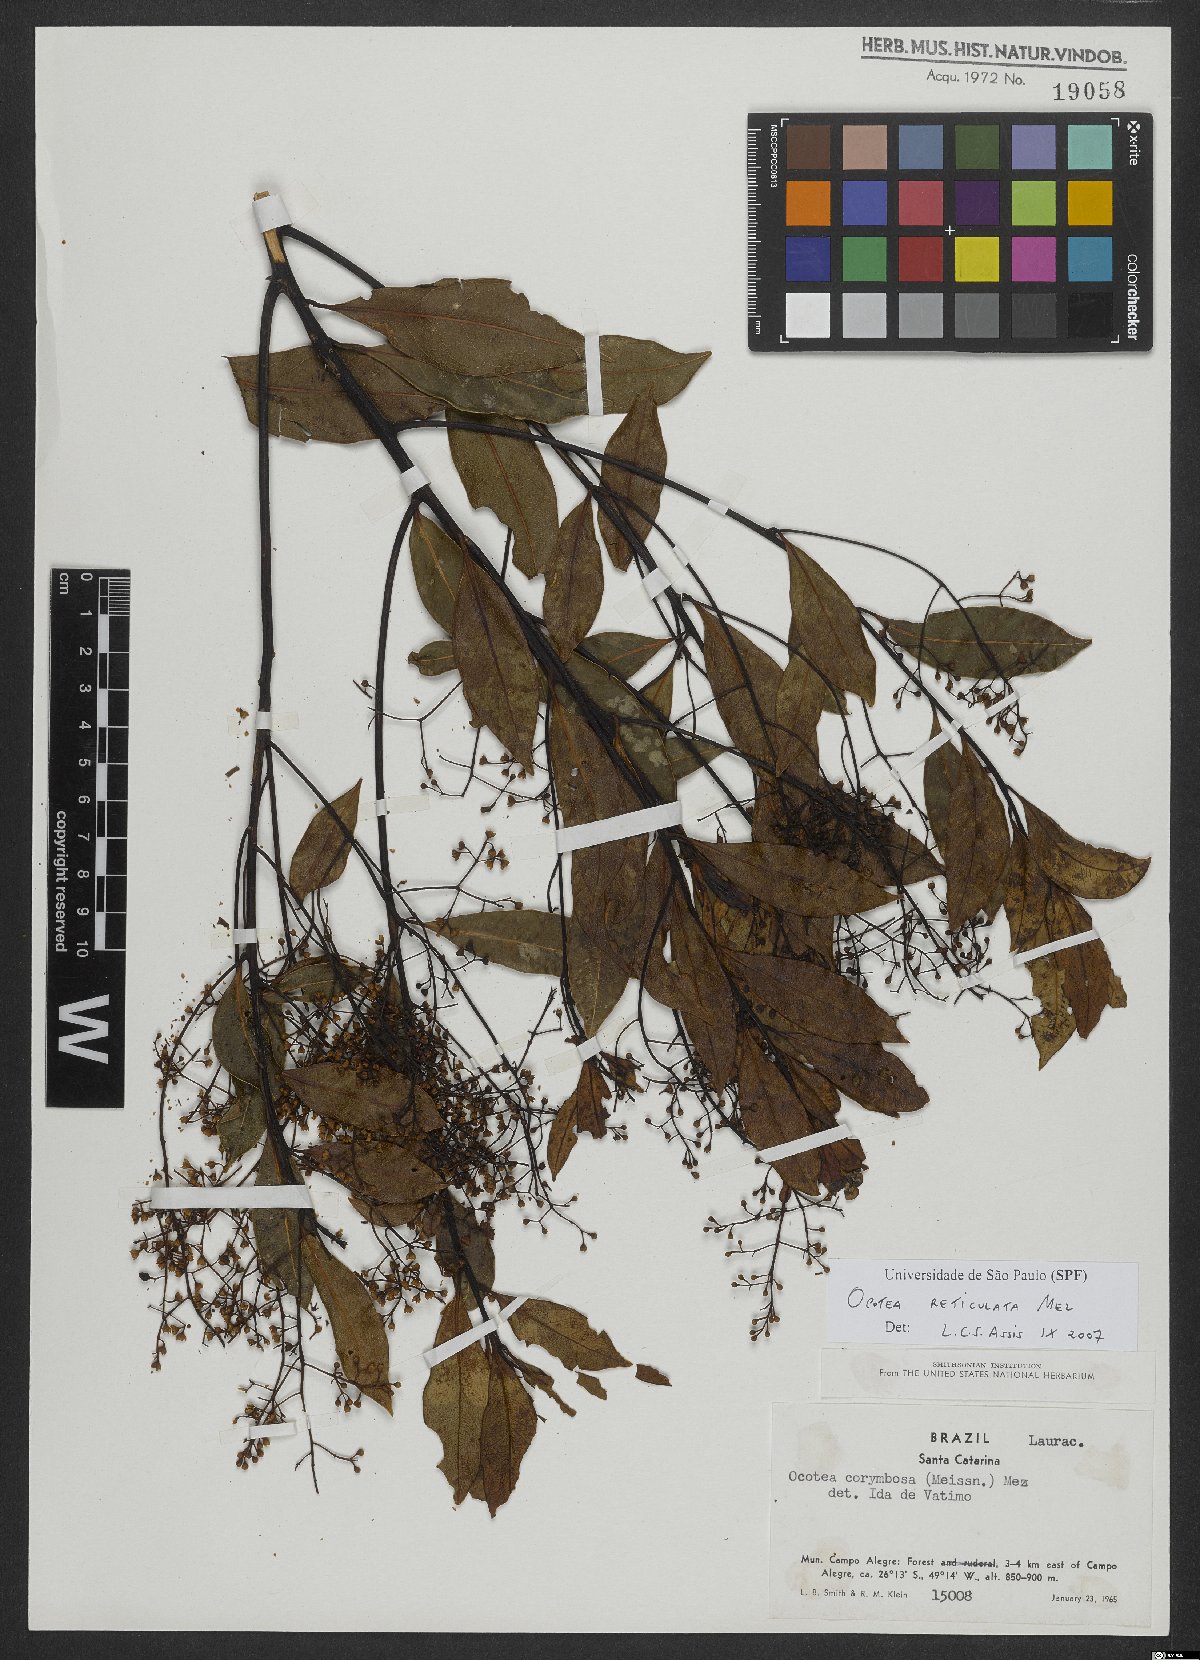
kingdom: Plantae
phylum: Tracheophyta
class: Magnoliopsida
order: Laurales
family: Lauraceae
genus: Mespilodaphne
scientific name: Mespilodaphne corymbosa
